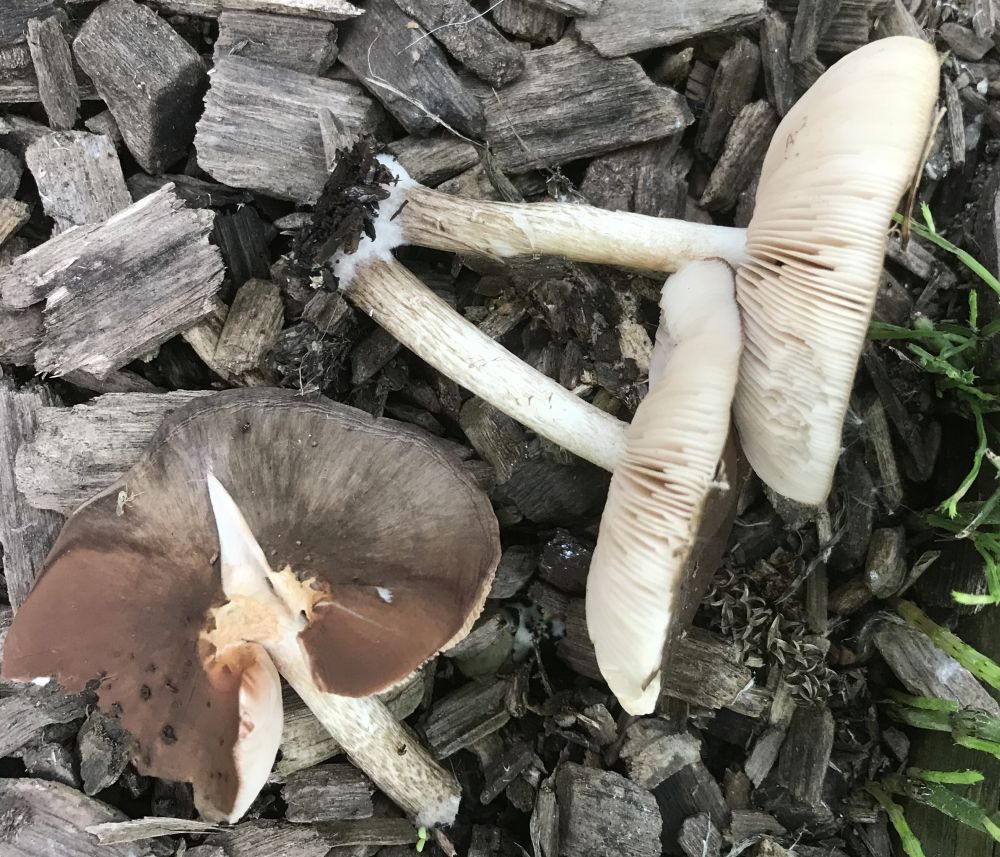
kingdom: Fungi
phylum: Basidiomycota
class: Agaricomycetes
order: Agaricales
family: Pluteaceae
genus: Pluteus
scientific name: Pluteus cervinus
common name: sodfarvet skærmhat
